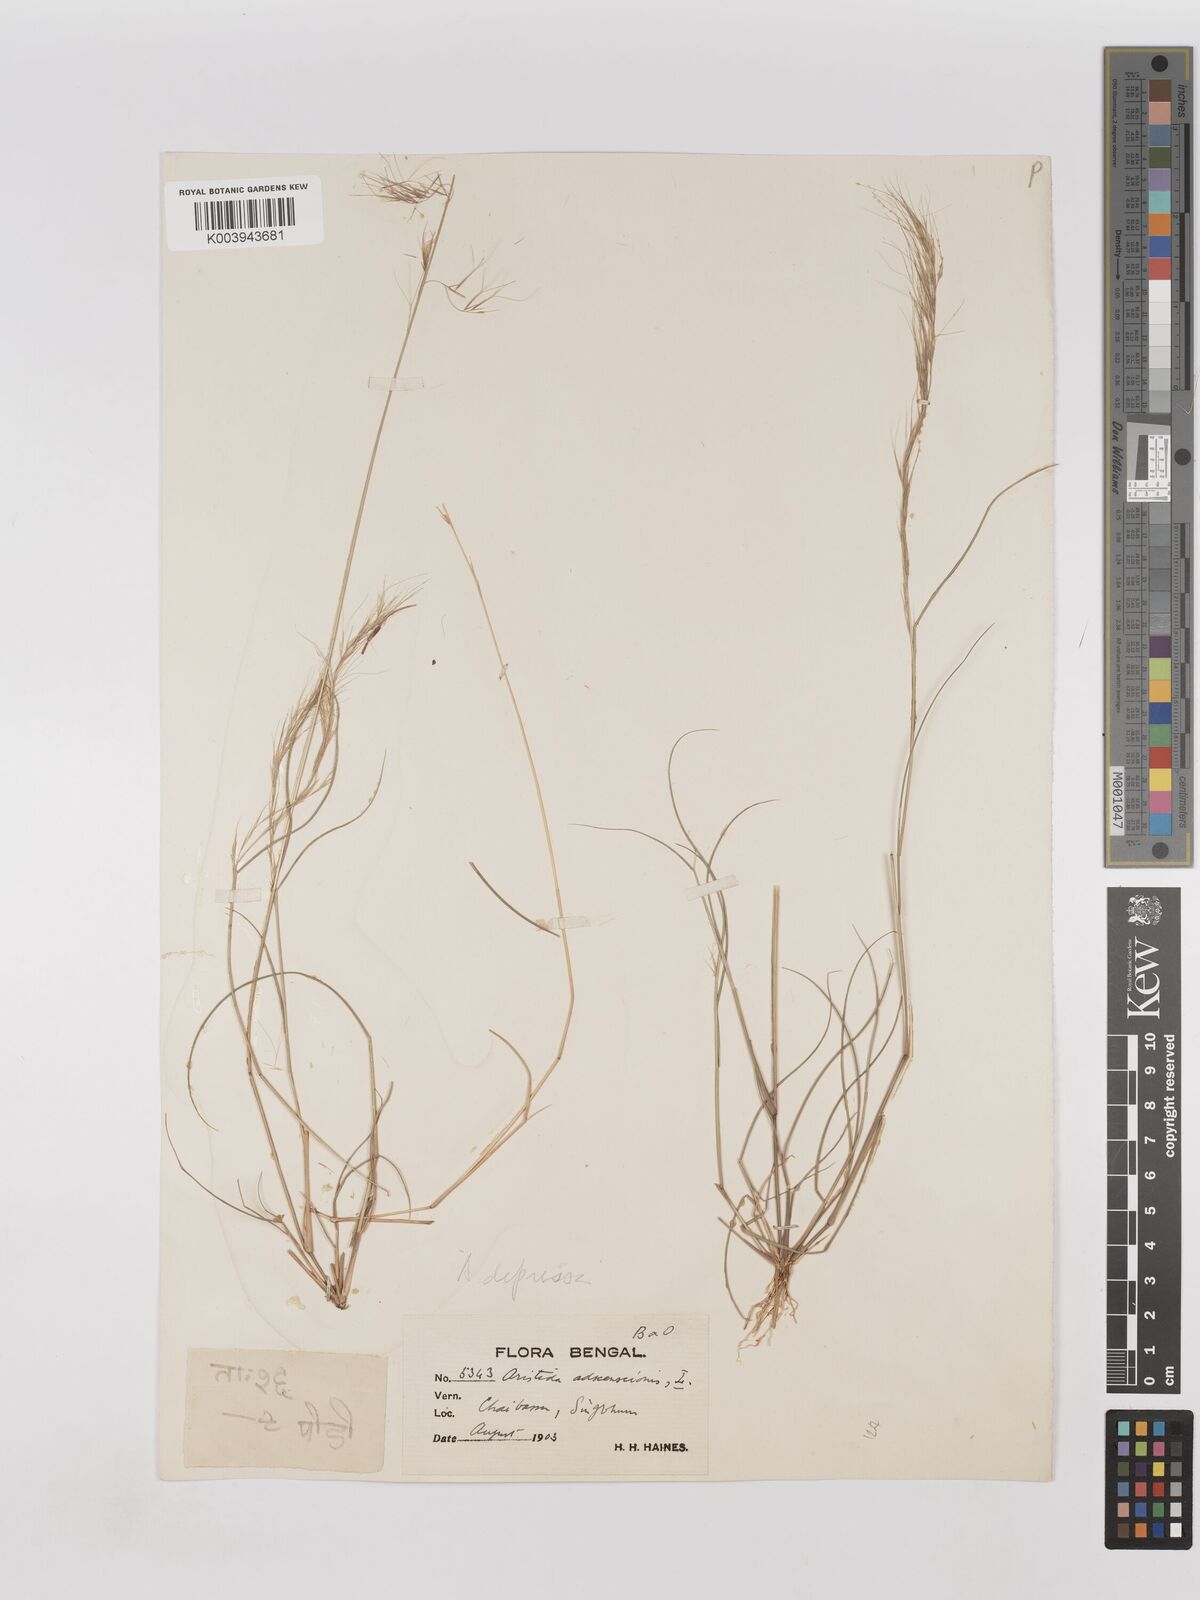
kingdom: Plantae
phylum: Tracheophyta
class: Liliopsida
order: Poales
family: Poaceae
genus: Aristida
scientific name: Aristida adscensionis
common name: Sixweeks threeawn
